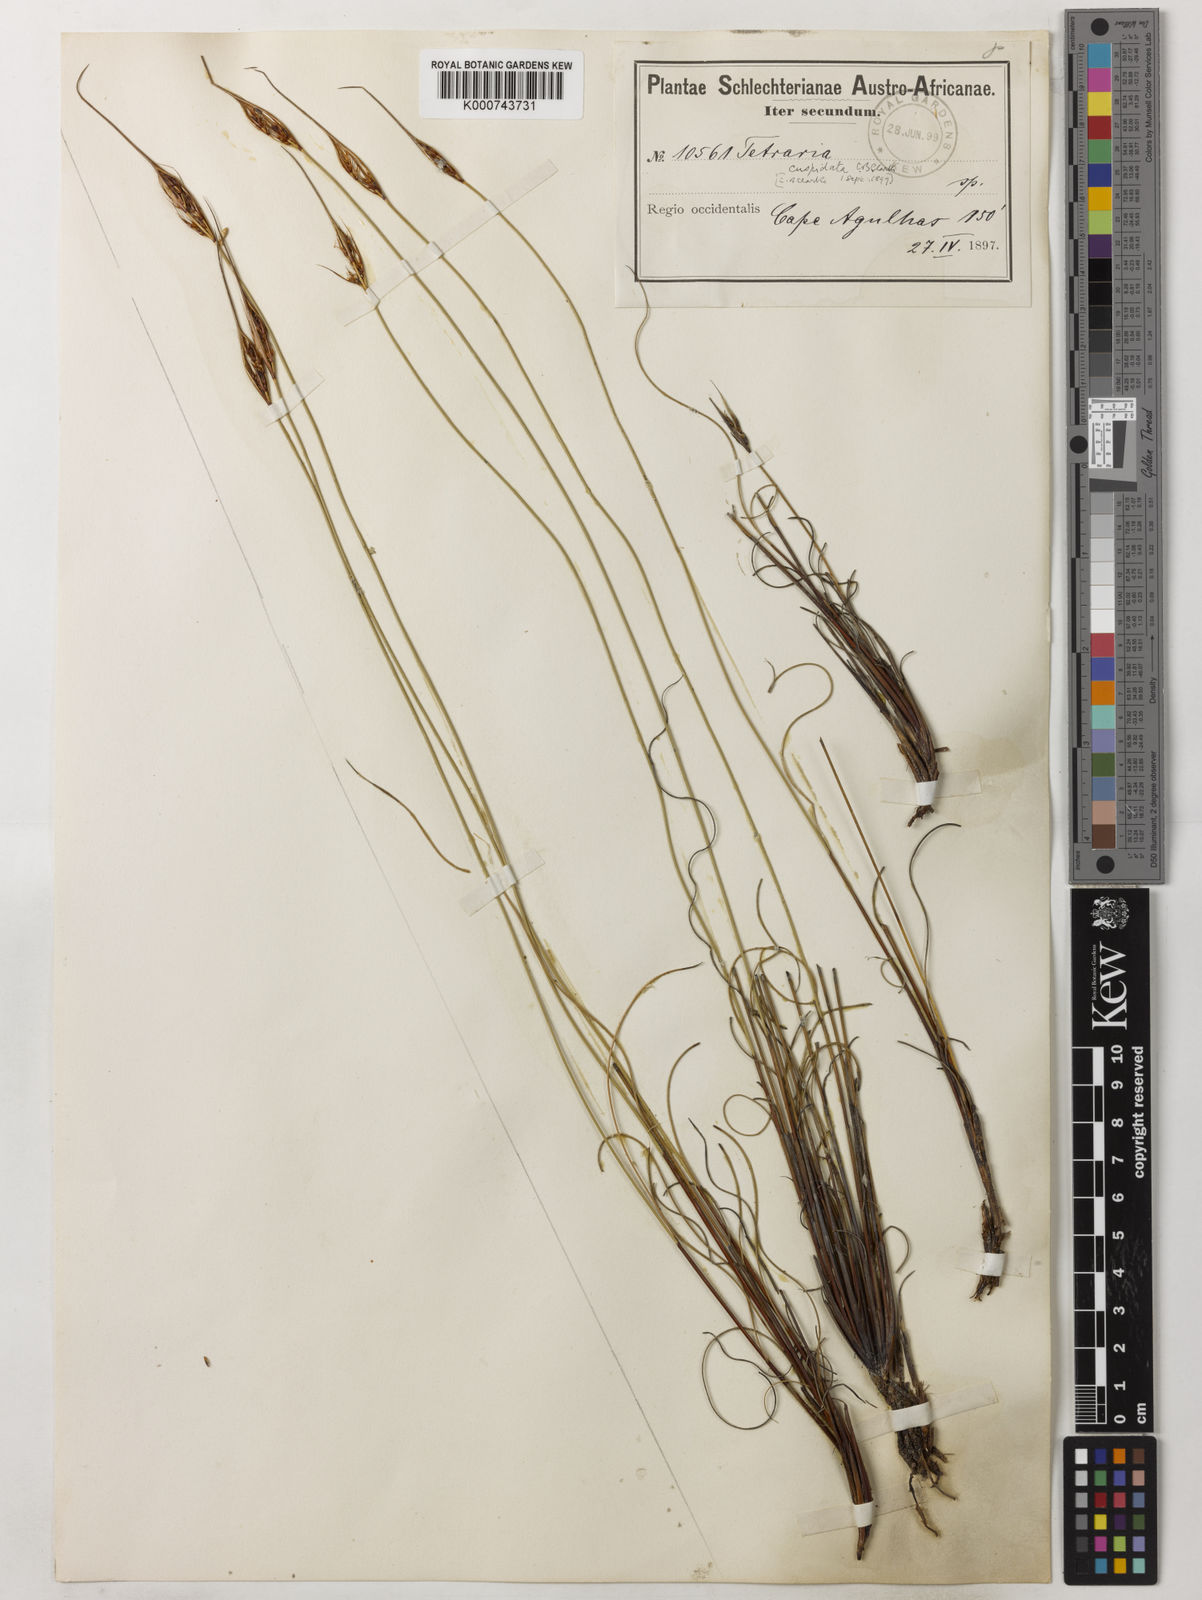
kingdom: Plantae
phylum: Tracheophyta
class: Liliopsida
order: Poales
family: Cyperaceae
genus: Tetraria
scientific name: Tetraria
